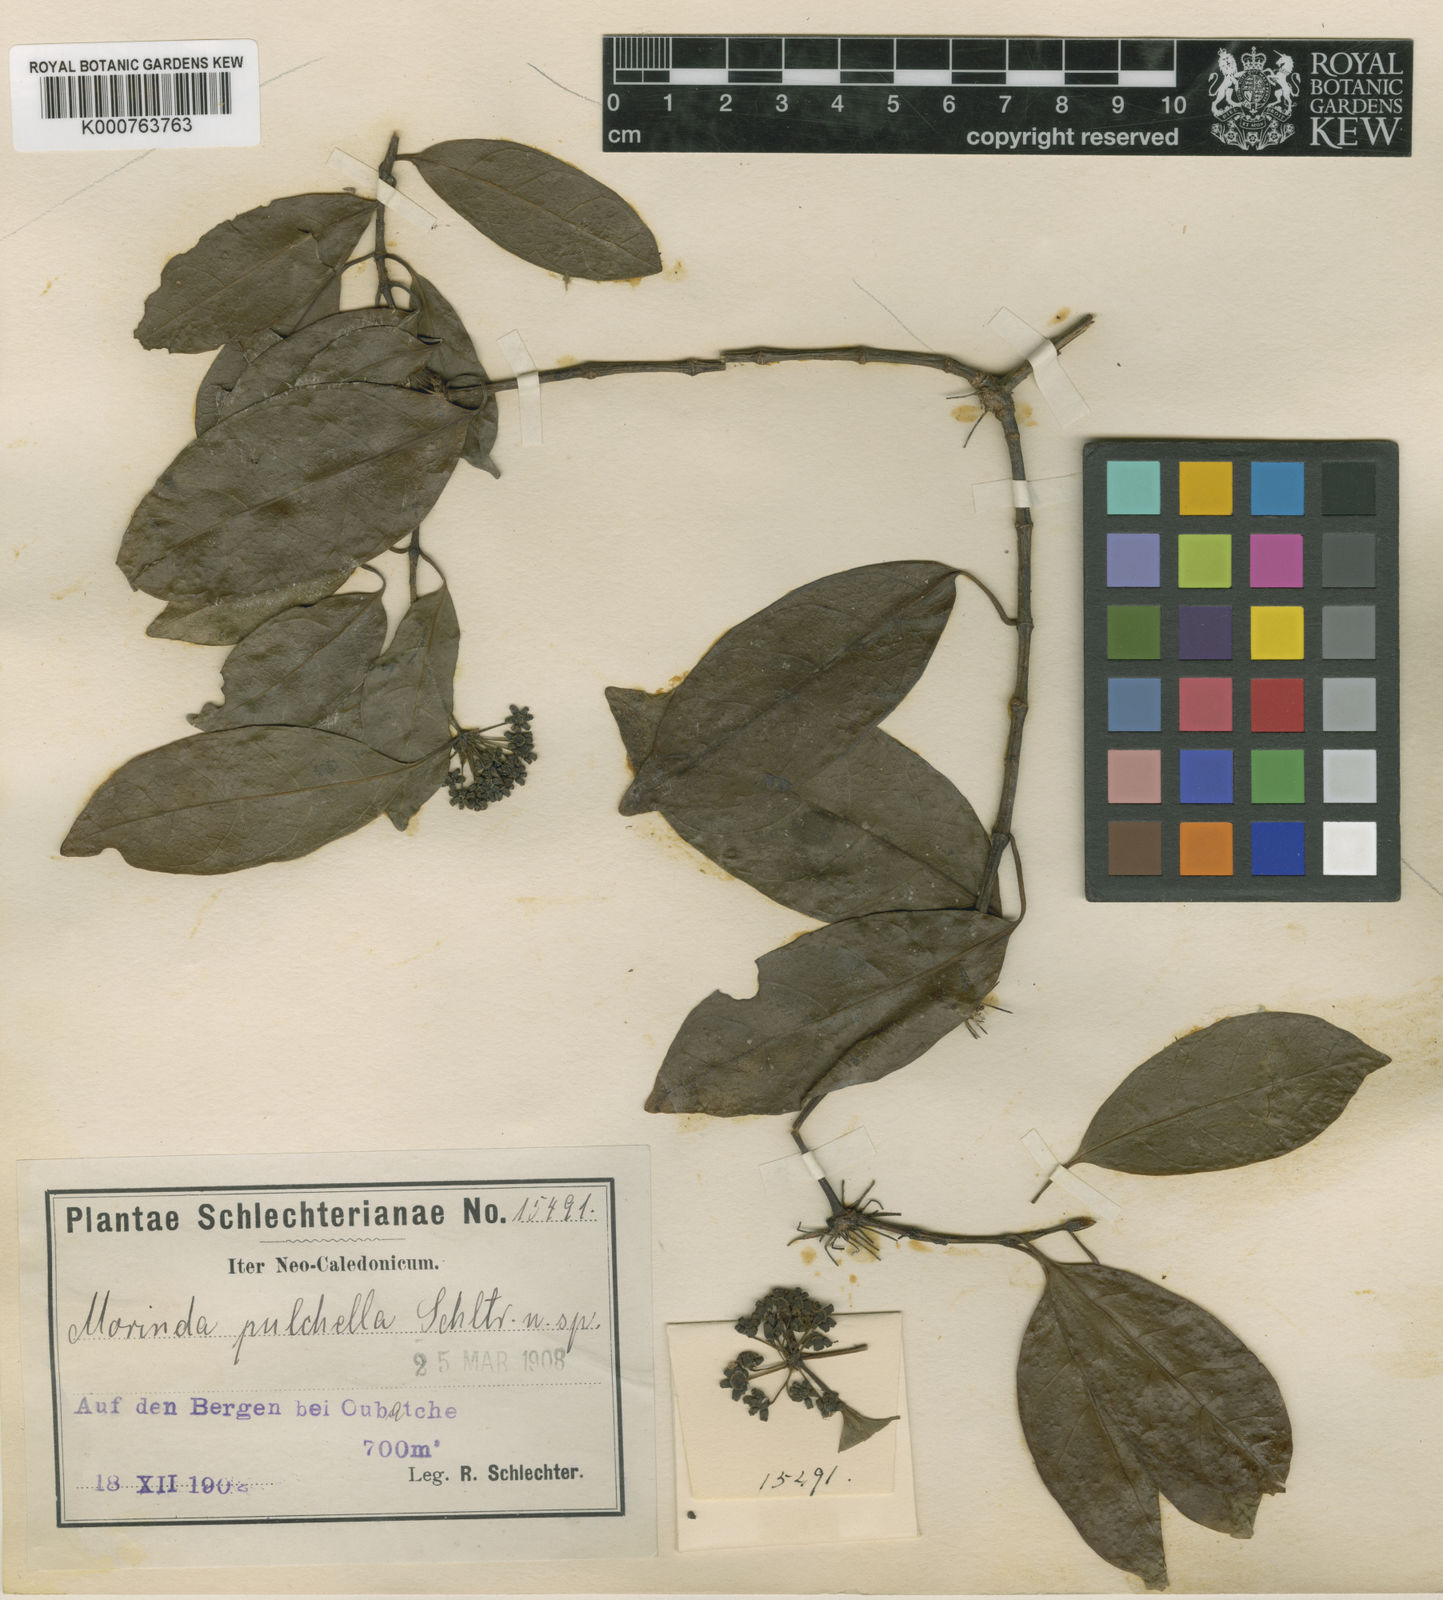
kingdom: Plantae
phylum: Tracheophyta
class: Magnoliopsida
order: Gentianales
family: Rubiaceae
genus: Gynochthodes
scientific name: Gynochthodes candollei
